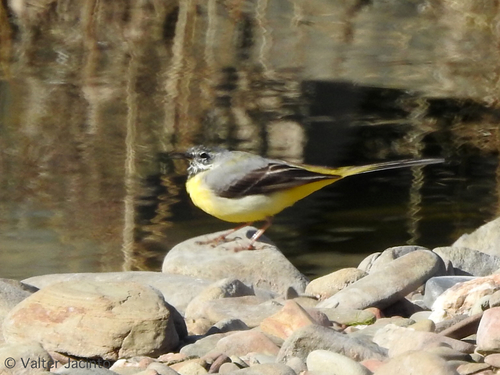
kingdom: Animalia
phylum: Chordata
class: Aves
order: Passeriformes
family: Motacillidae
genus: Motacilla
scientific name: Motacilla cinerea
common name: Grey wagtail
